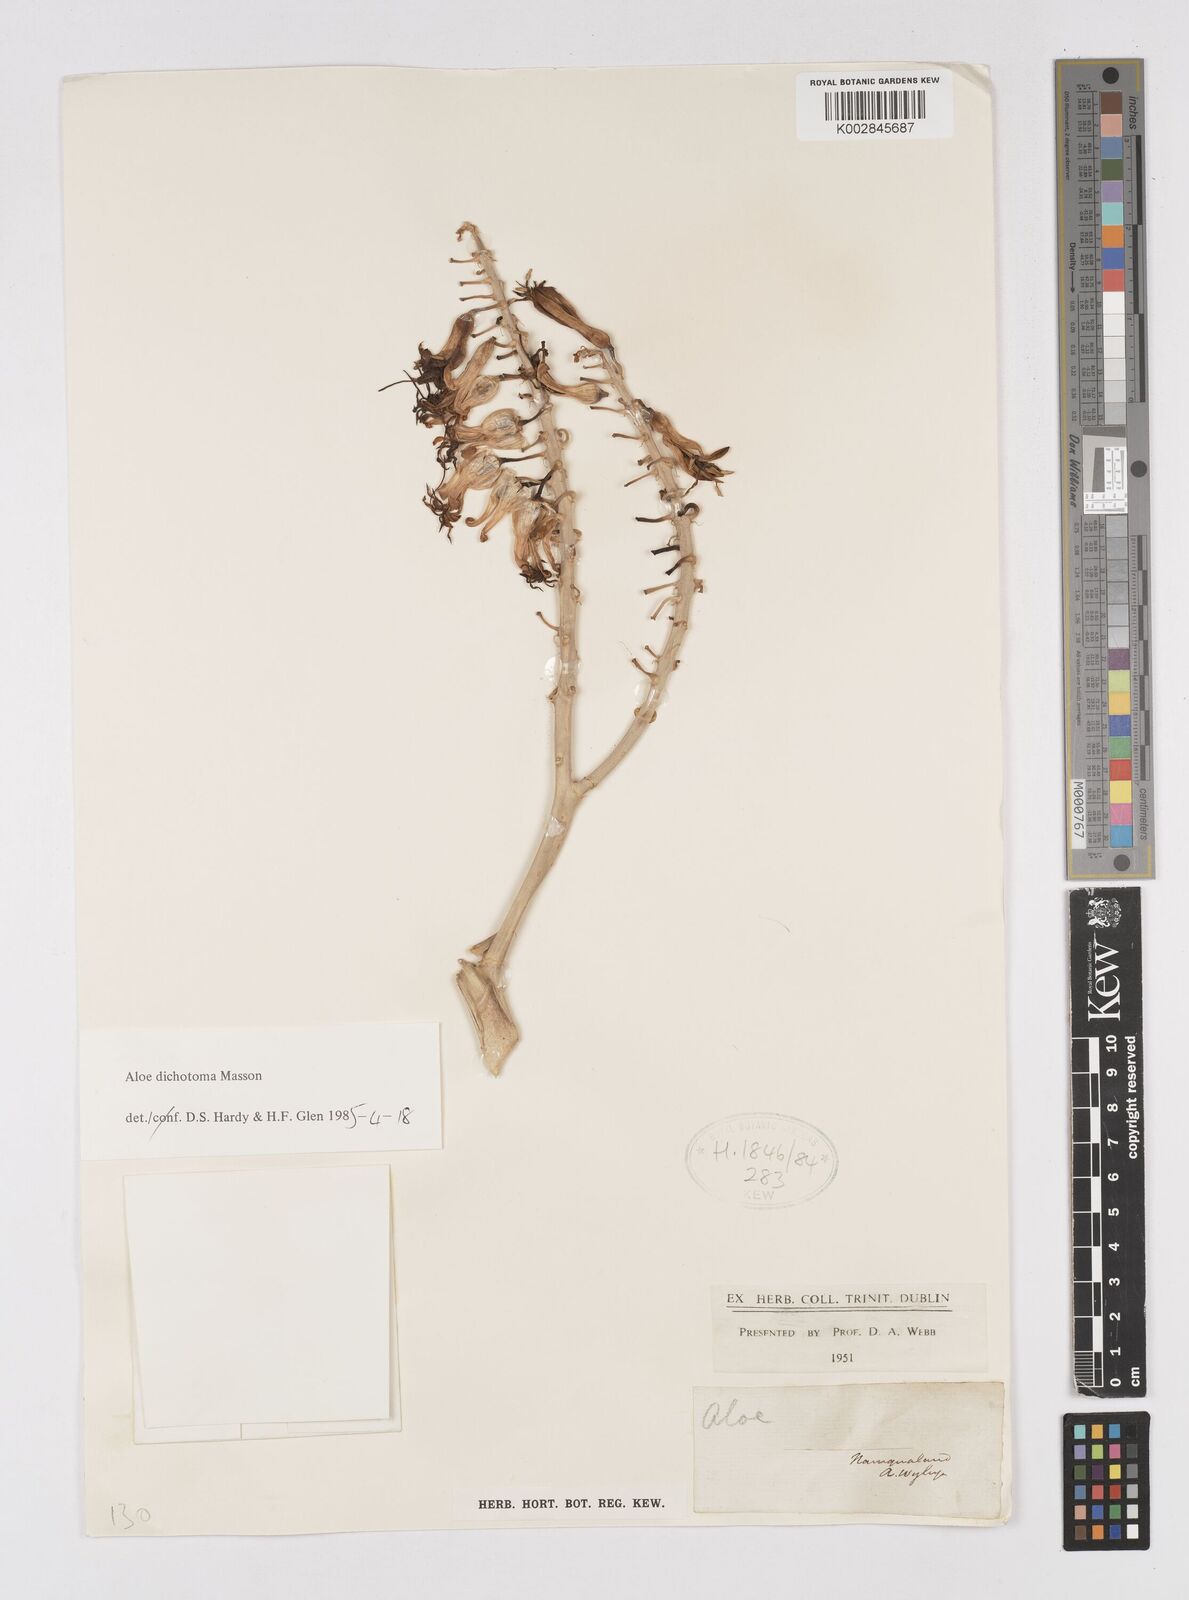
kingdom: Plantae
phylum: Tracheophyta
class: Liliopsida
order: Asparagales
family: Asphodelaceae
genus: Aloidendron
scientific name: Aloidendron dichotomum
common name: Quiver tree
